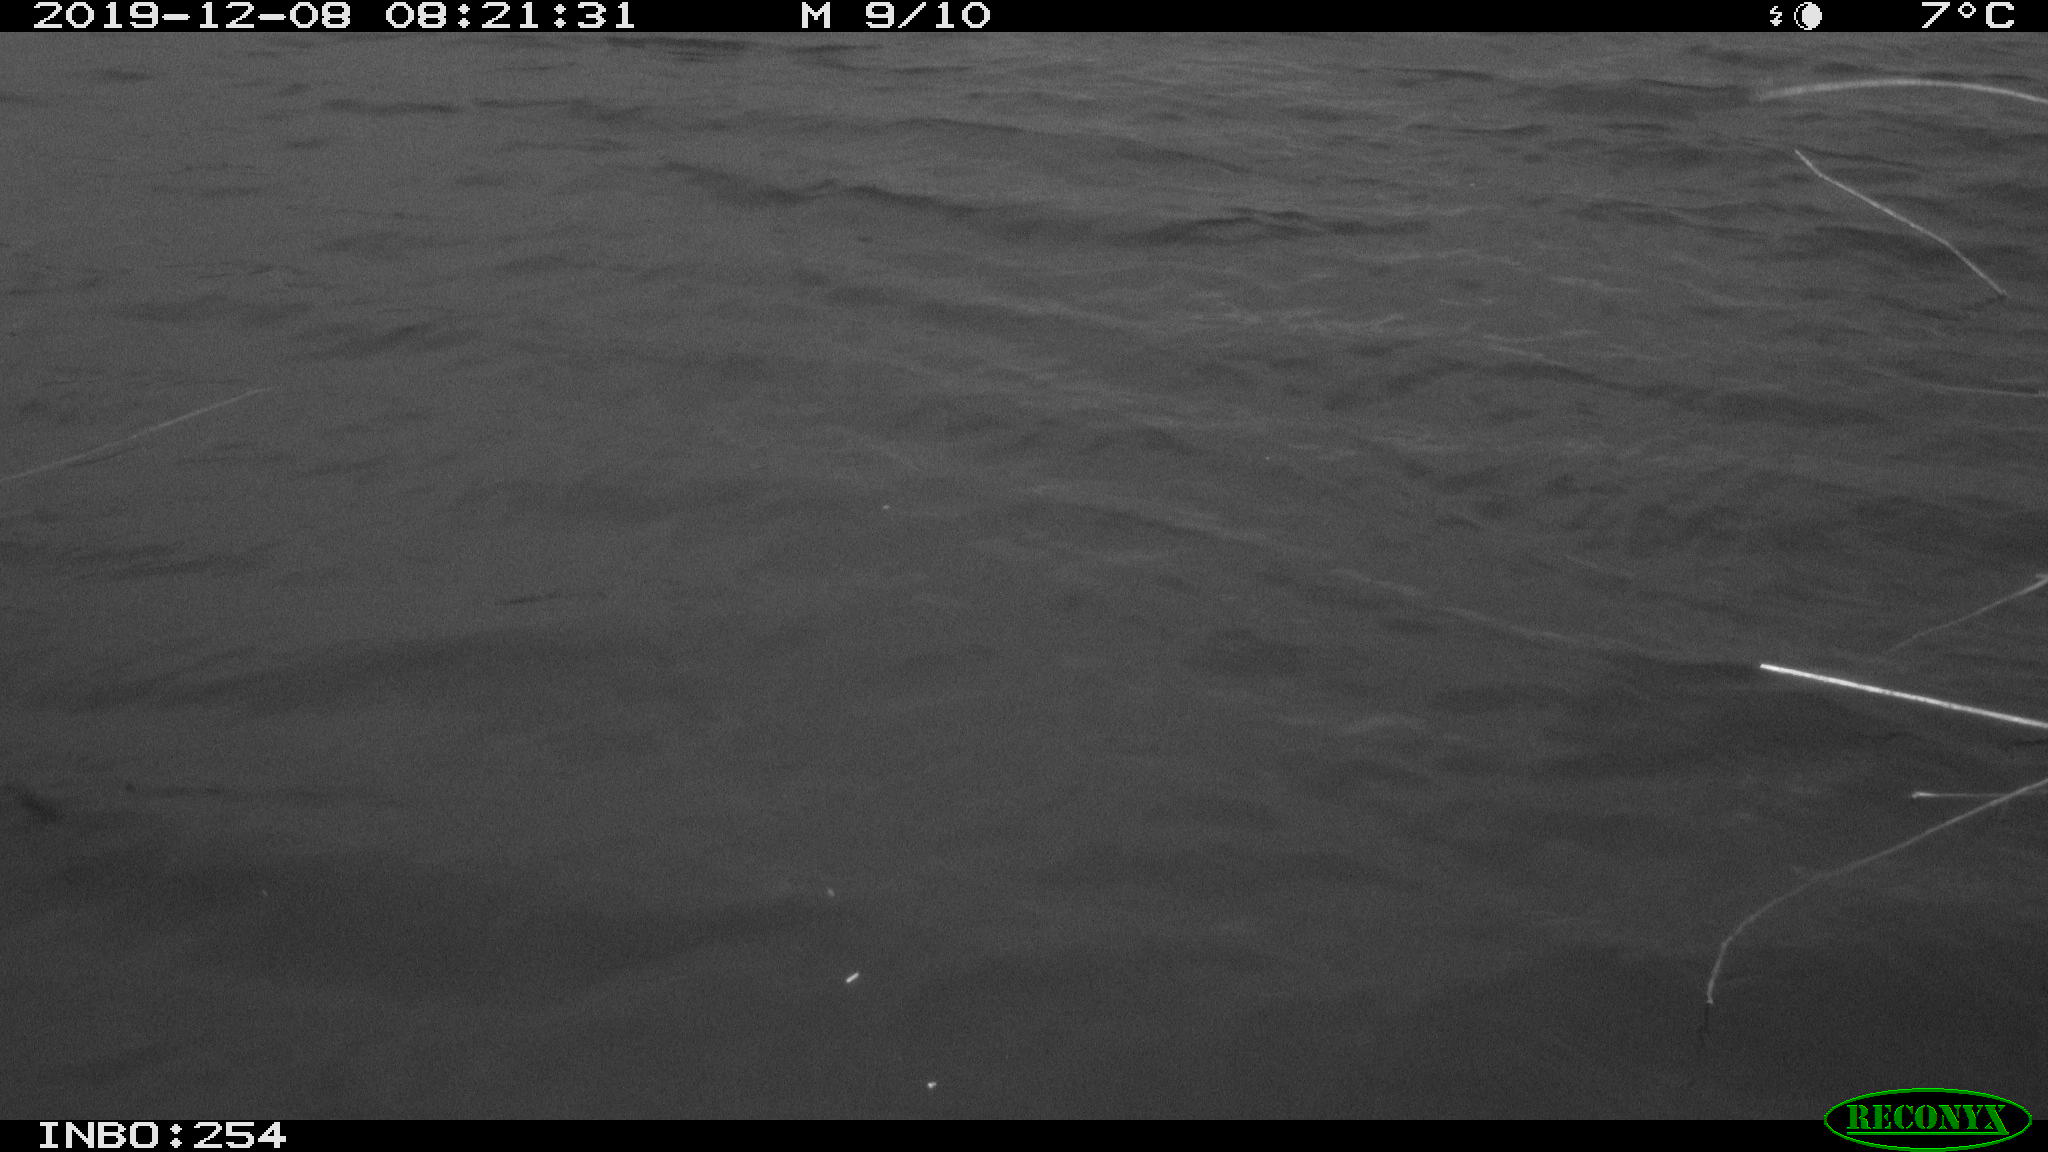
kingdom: Animalia
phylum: Chordata
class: Aves
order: Gruiformes
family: Rallidae
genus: Gallinula
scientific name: Gallinula chloropus
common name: Common moorhen
